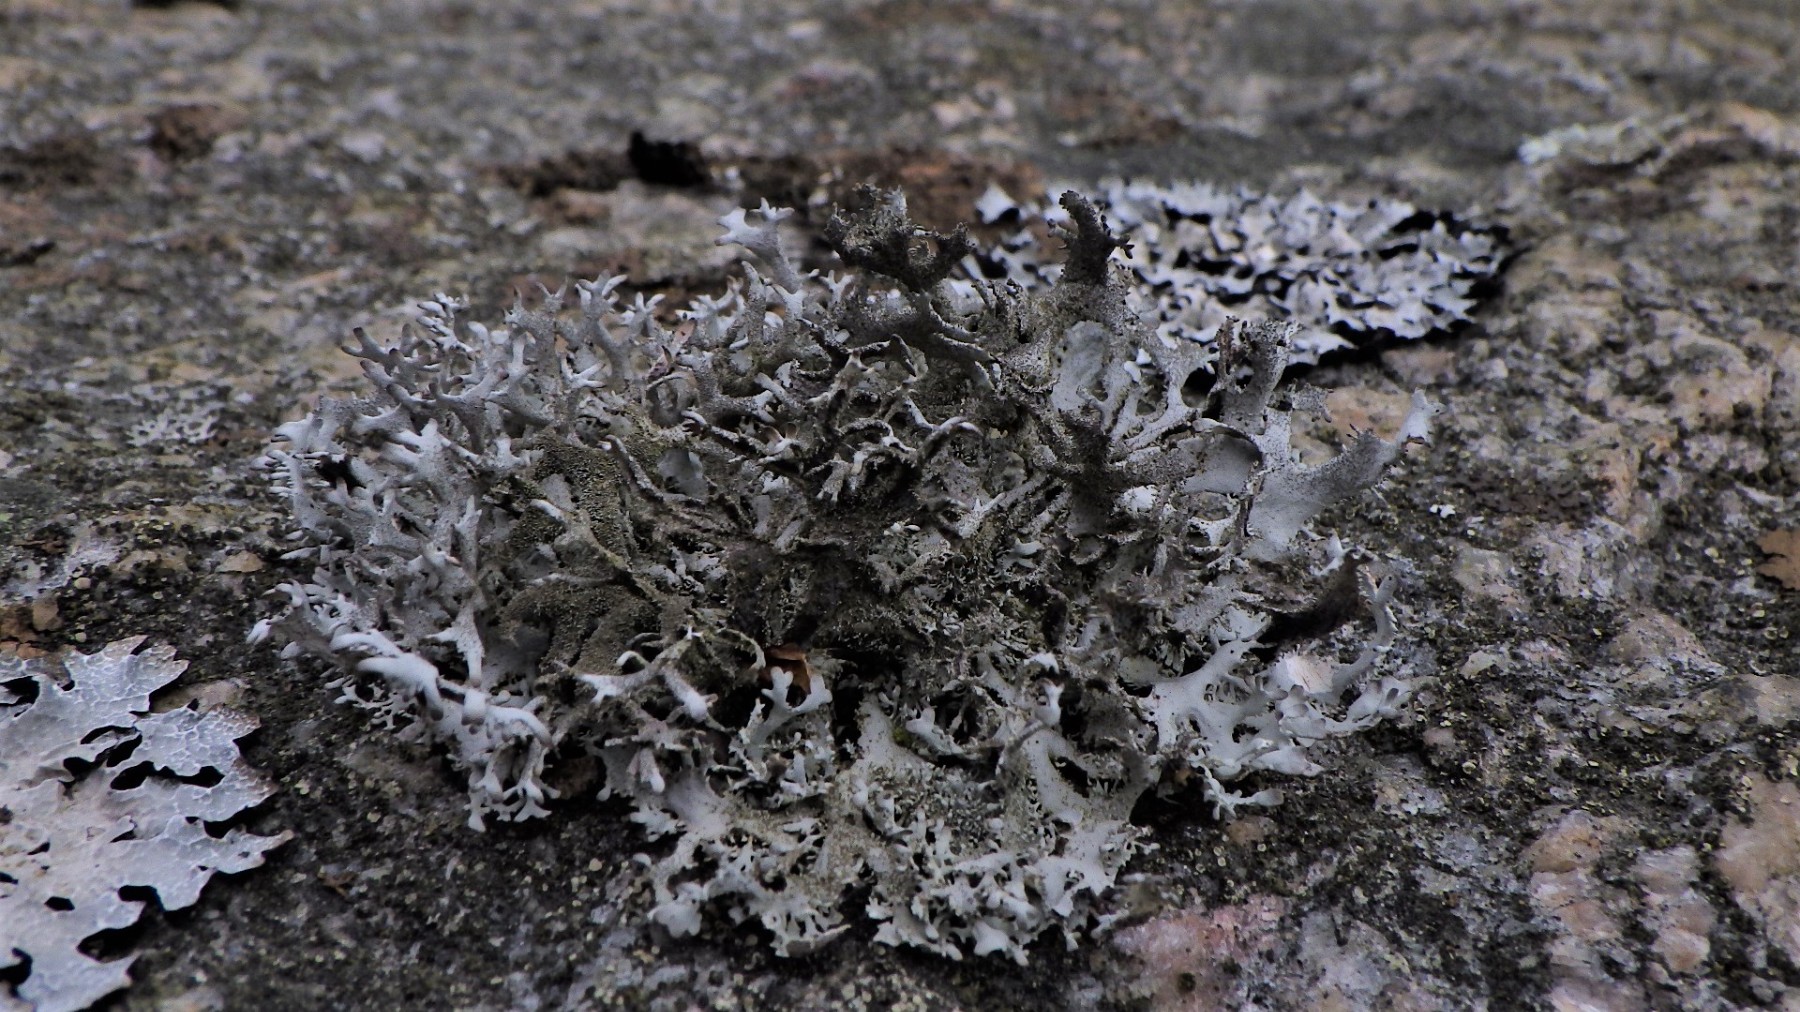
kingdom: Fungi
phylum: Ascomycota
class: Lecanoromycetes
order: Lecanorales
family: Parmeliaceae
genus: Pseudevernia
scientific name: Pseudevernia furfuracea
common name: grå fyrrelav
